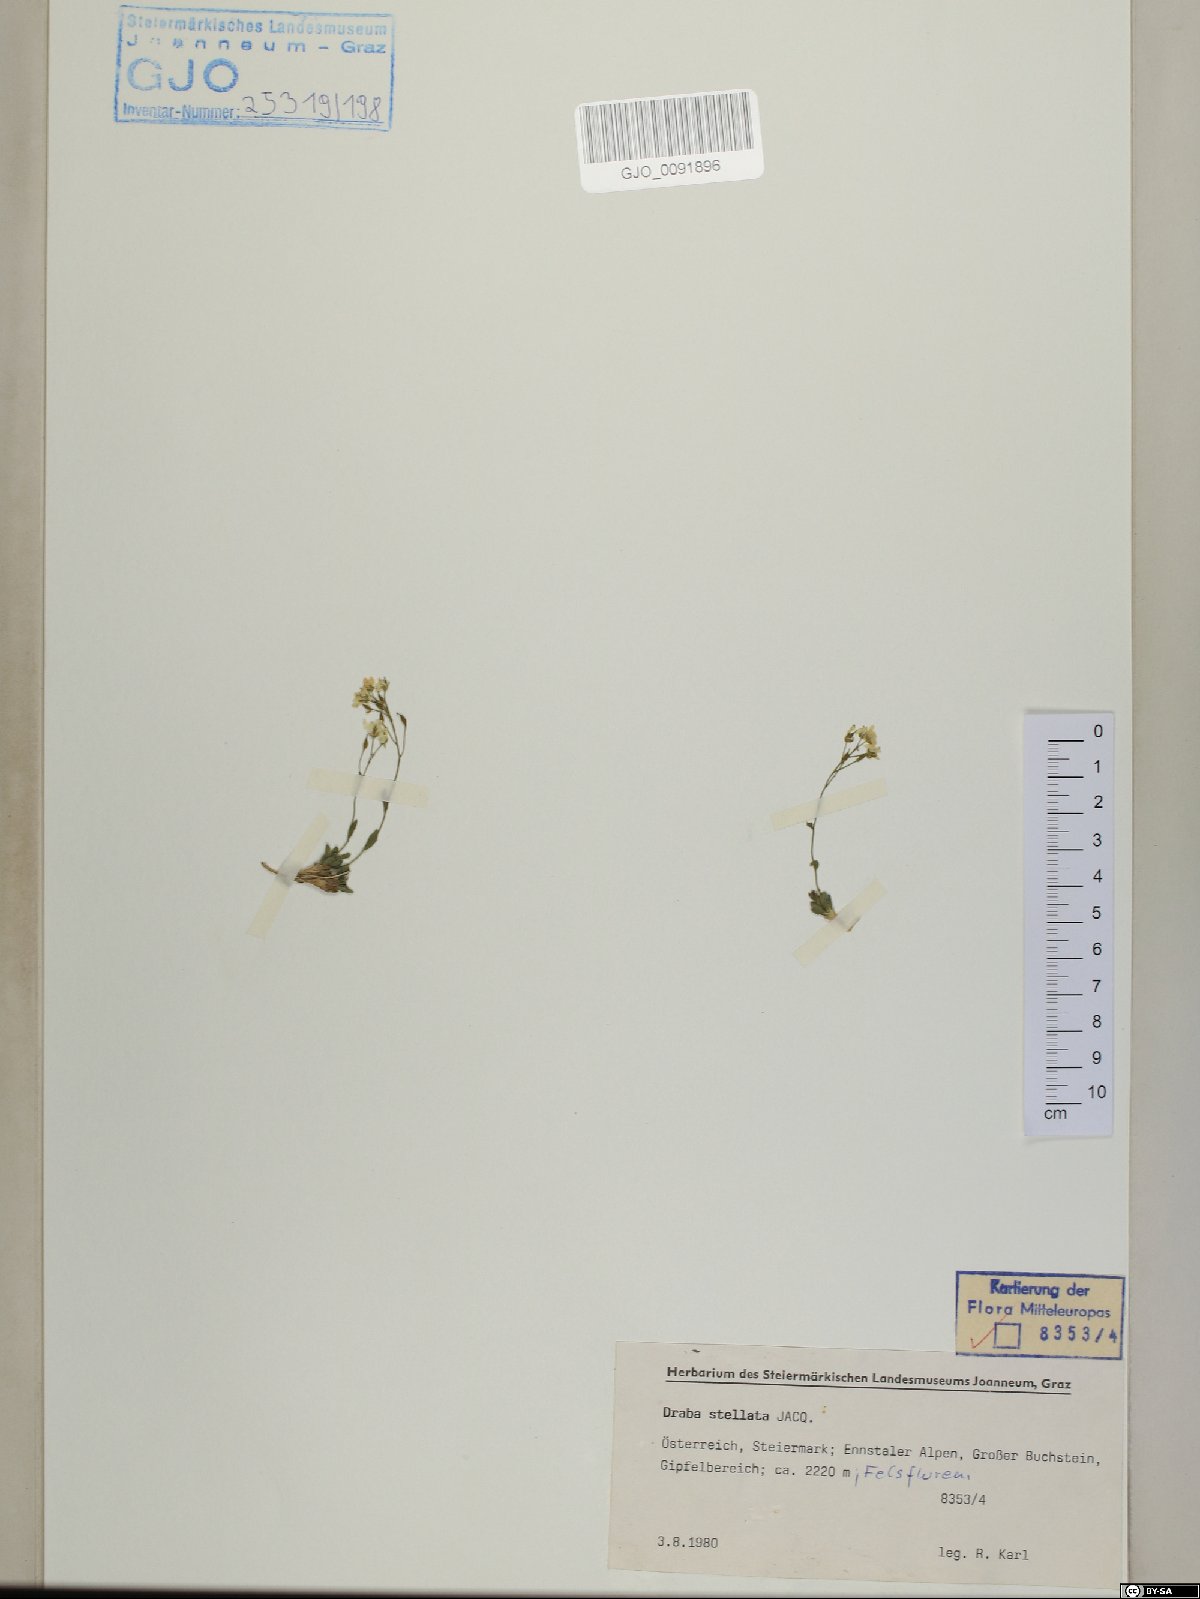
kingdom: Plantae
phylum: Tracheophyta
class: Magnoliopsida
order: Brassicales
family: Brassicaceae
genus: Draba
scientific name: Draba stellata
